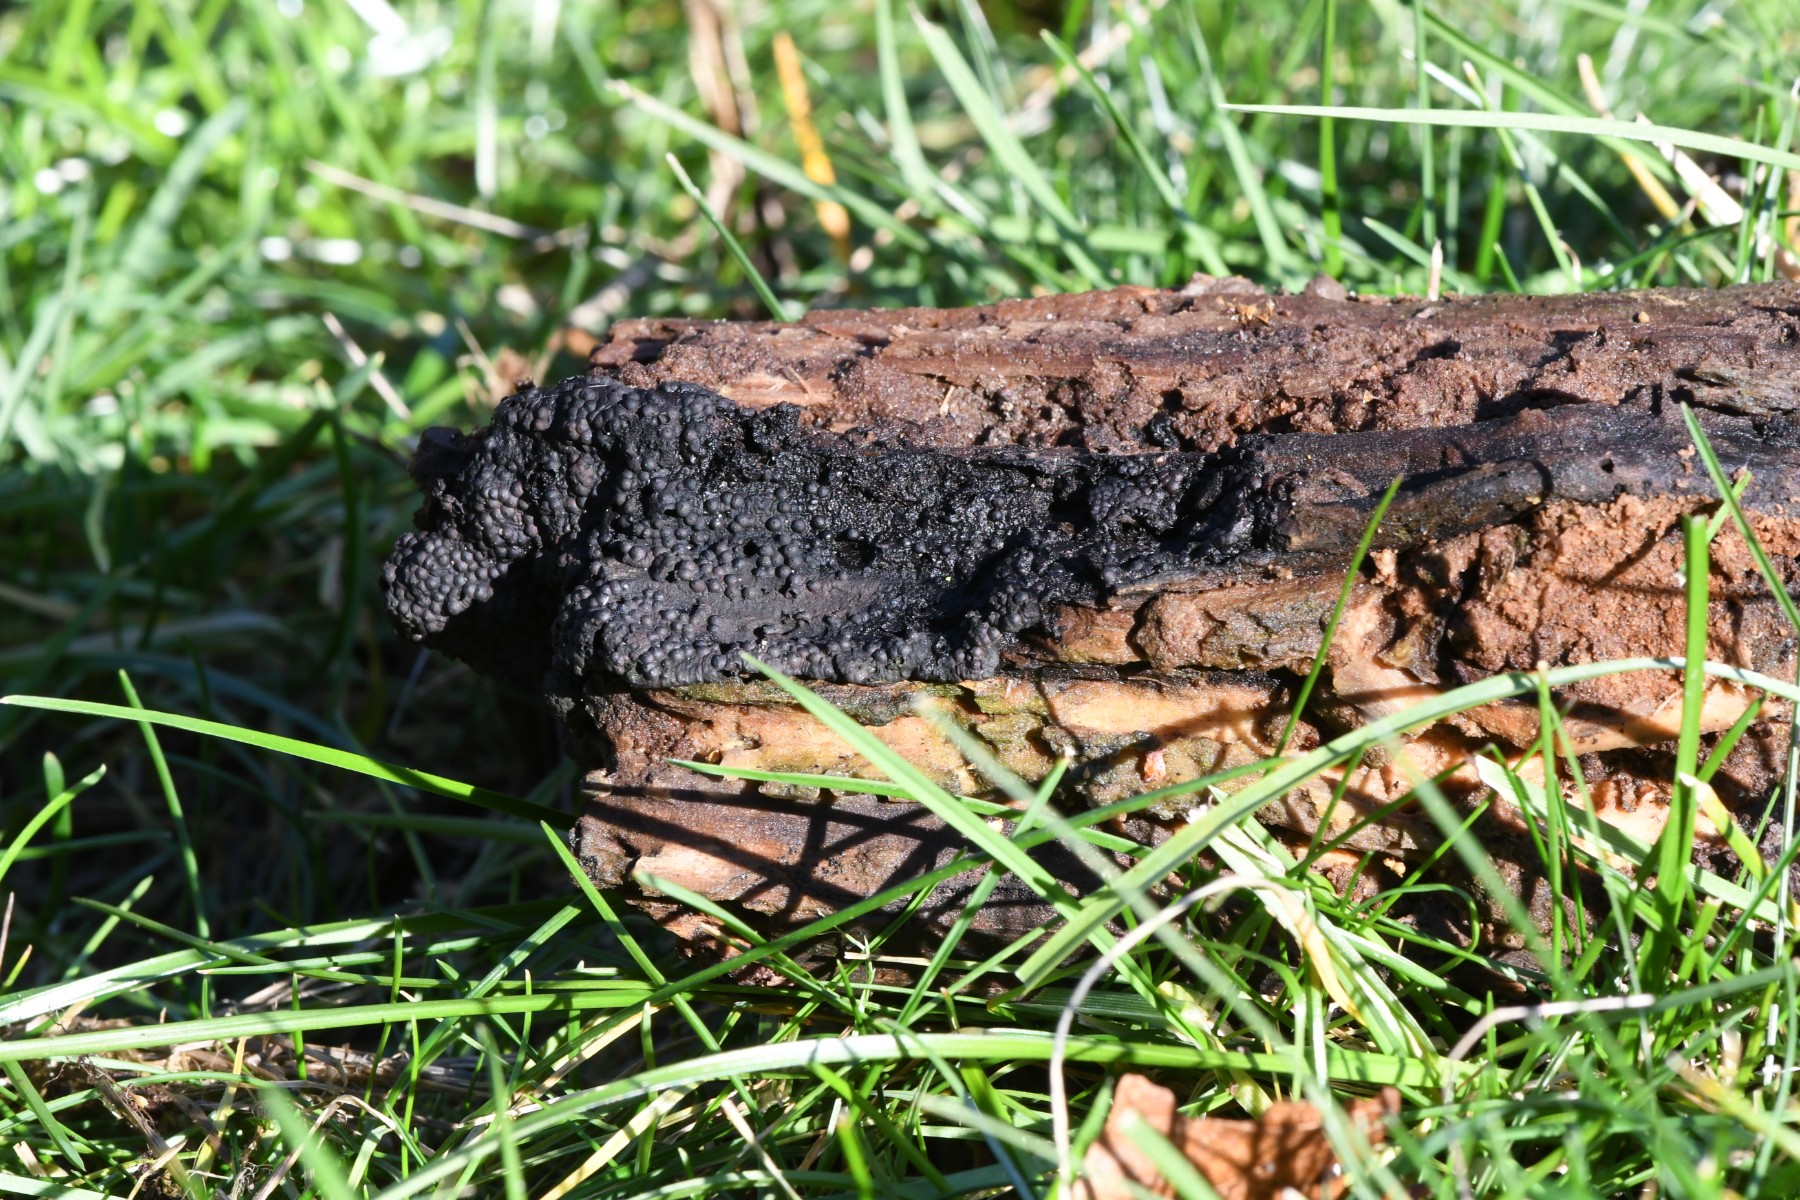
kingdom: Fungi
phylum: Ascomycota
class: Sordariomycetes
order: Xylariales
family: Hypoxylaceae
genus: Jackrogersella
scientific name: Jackrogersella multiformis
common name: foranderlig kulbær
